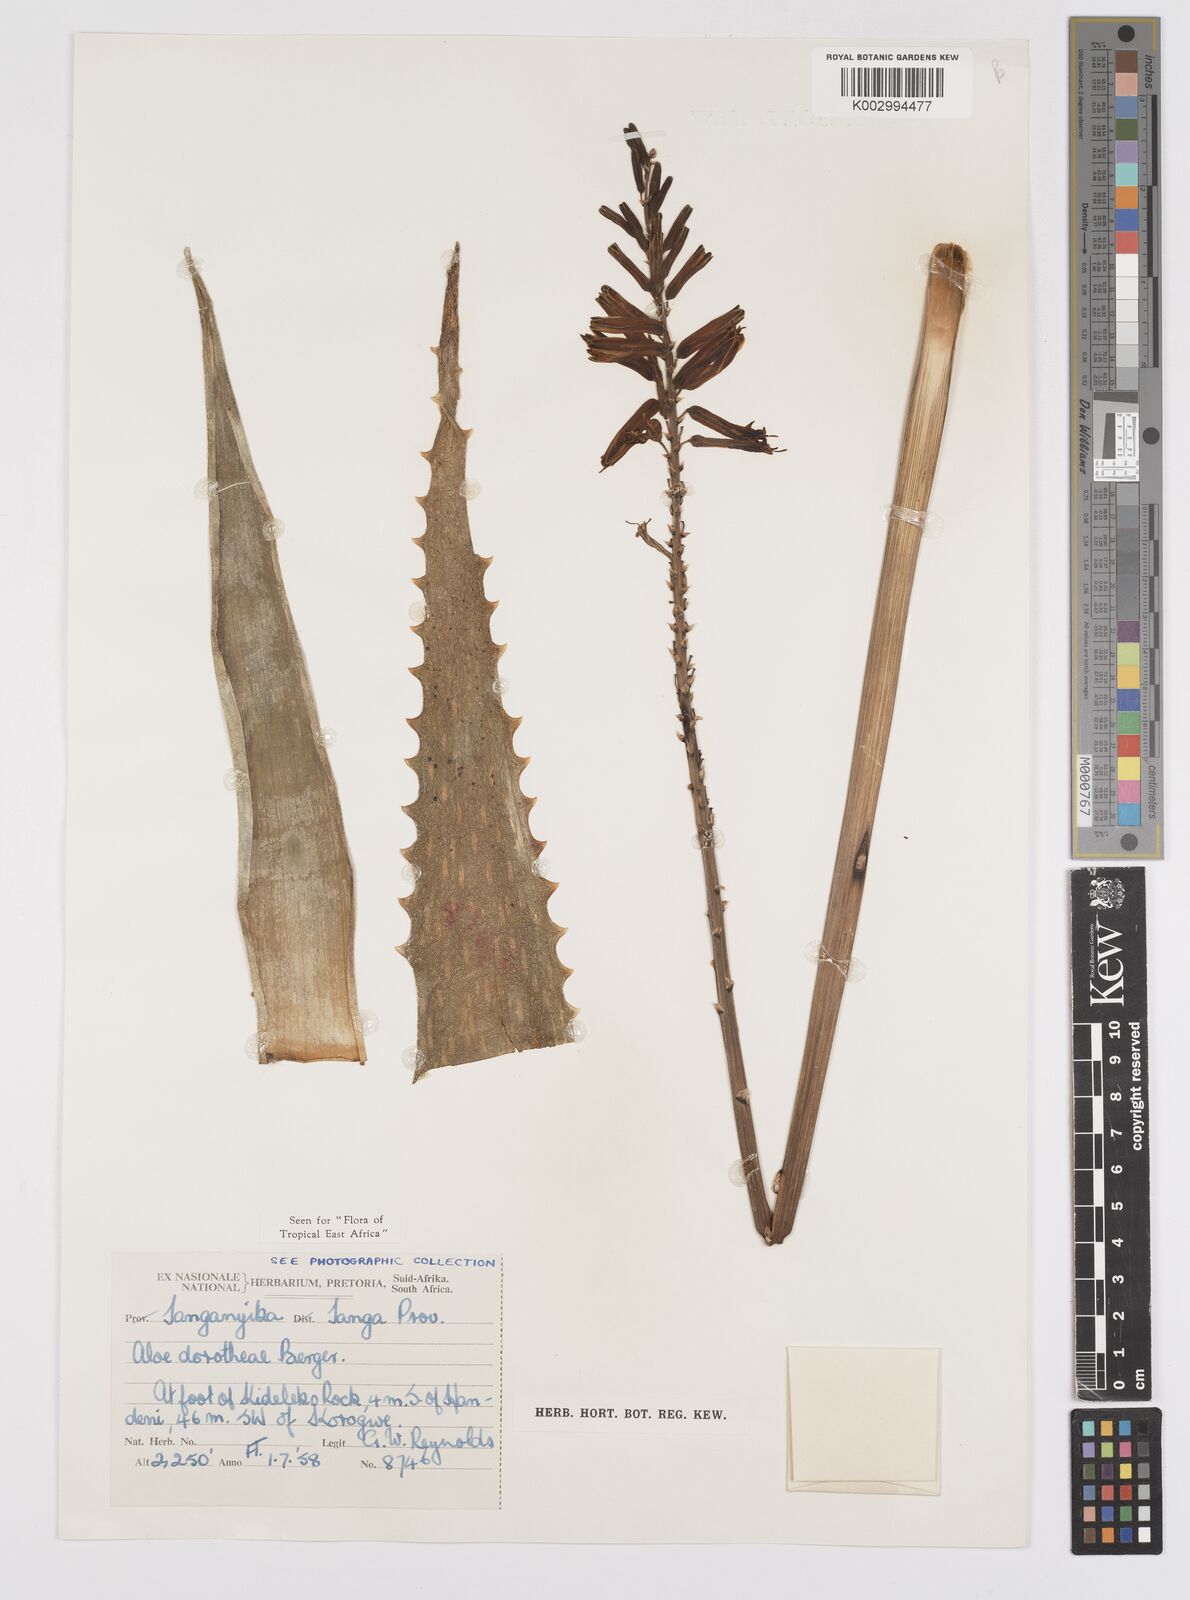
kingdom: Plantae
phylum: Tracheophyta
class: Liliopsida
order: Asparagales
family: Asphodelaceae
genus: Aloe
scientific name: Aloe dorotheae
